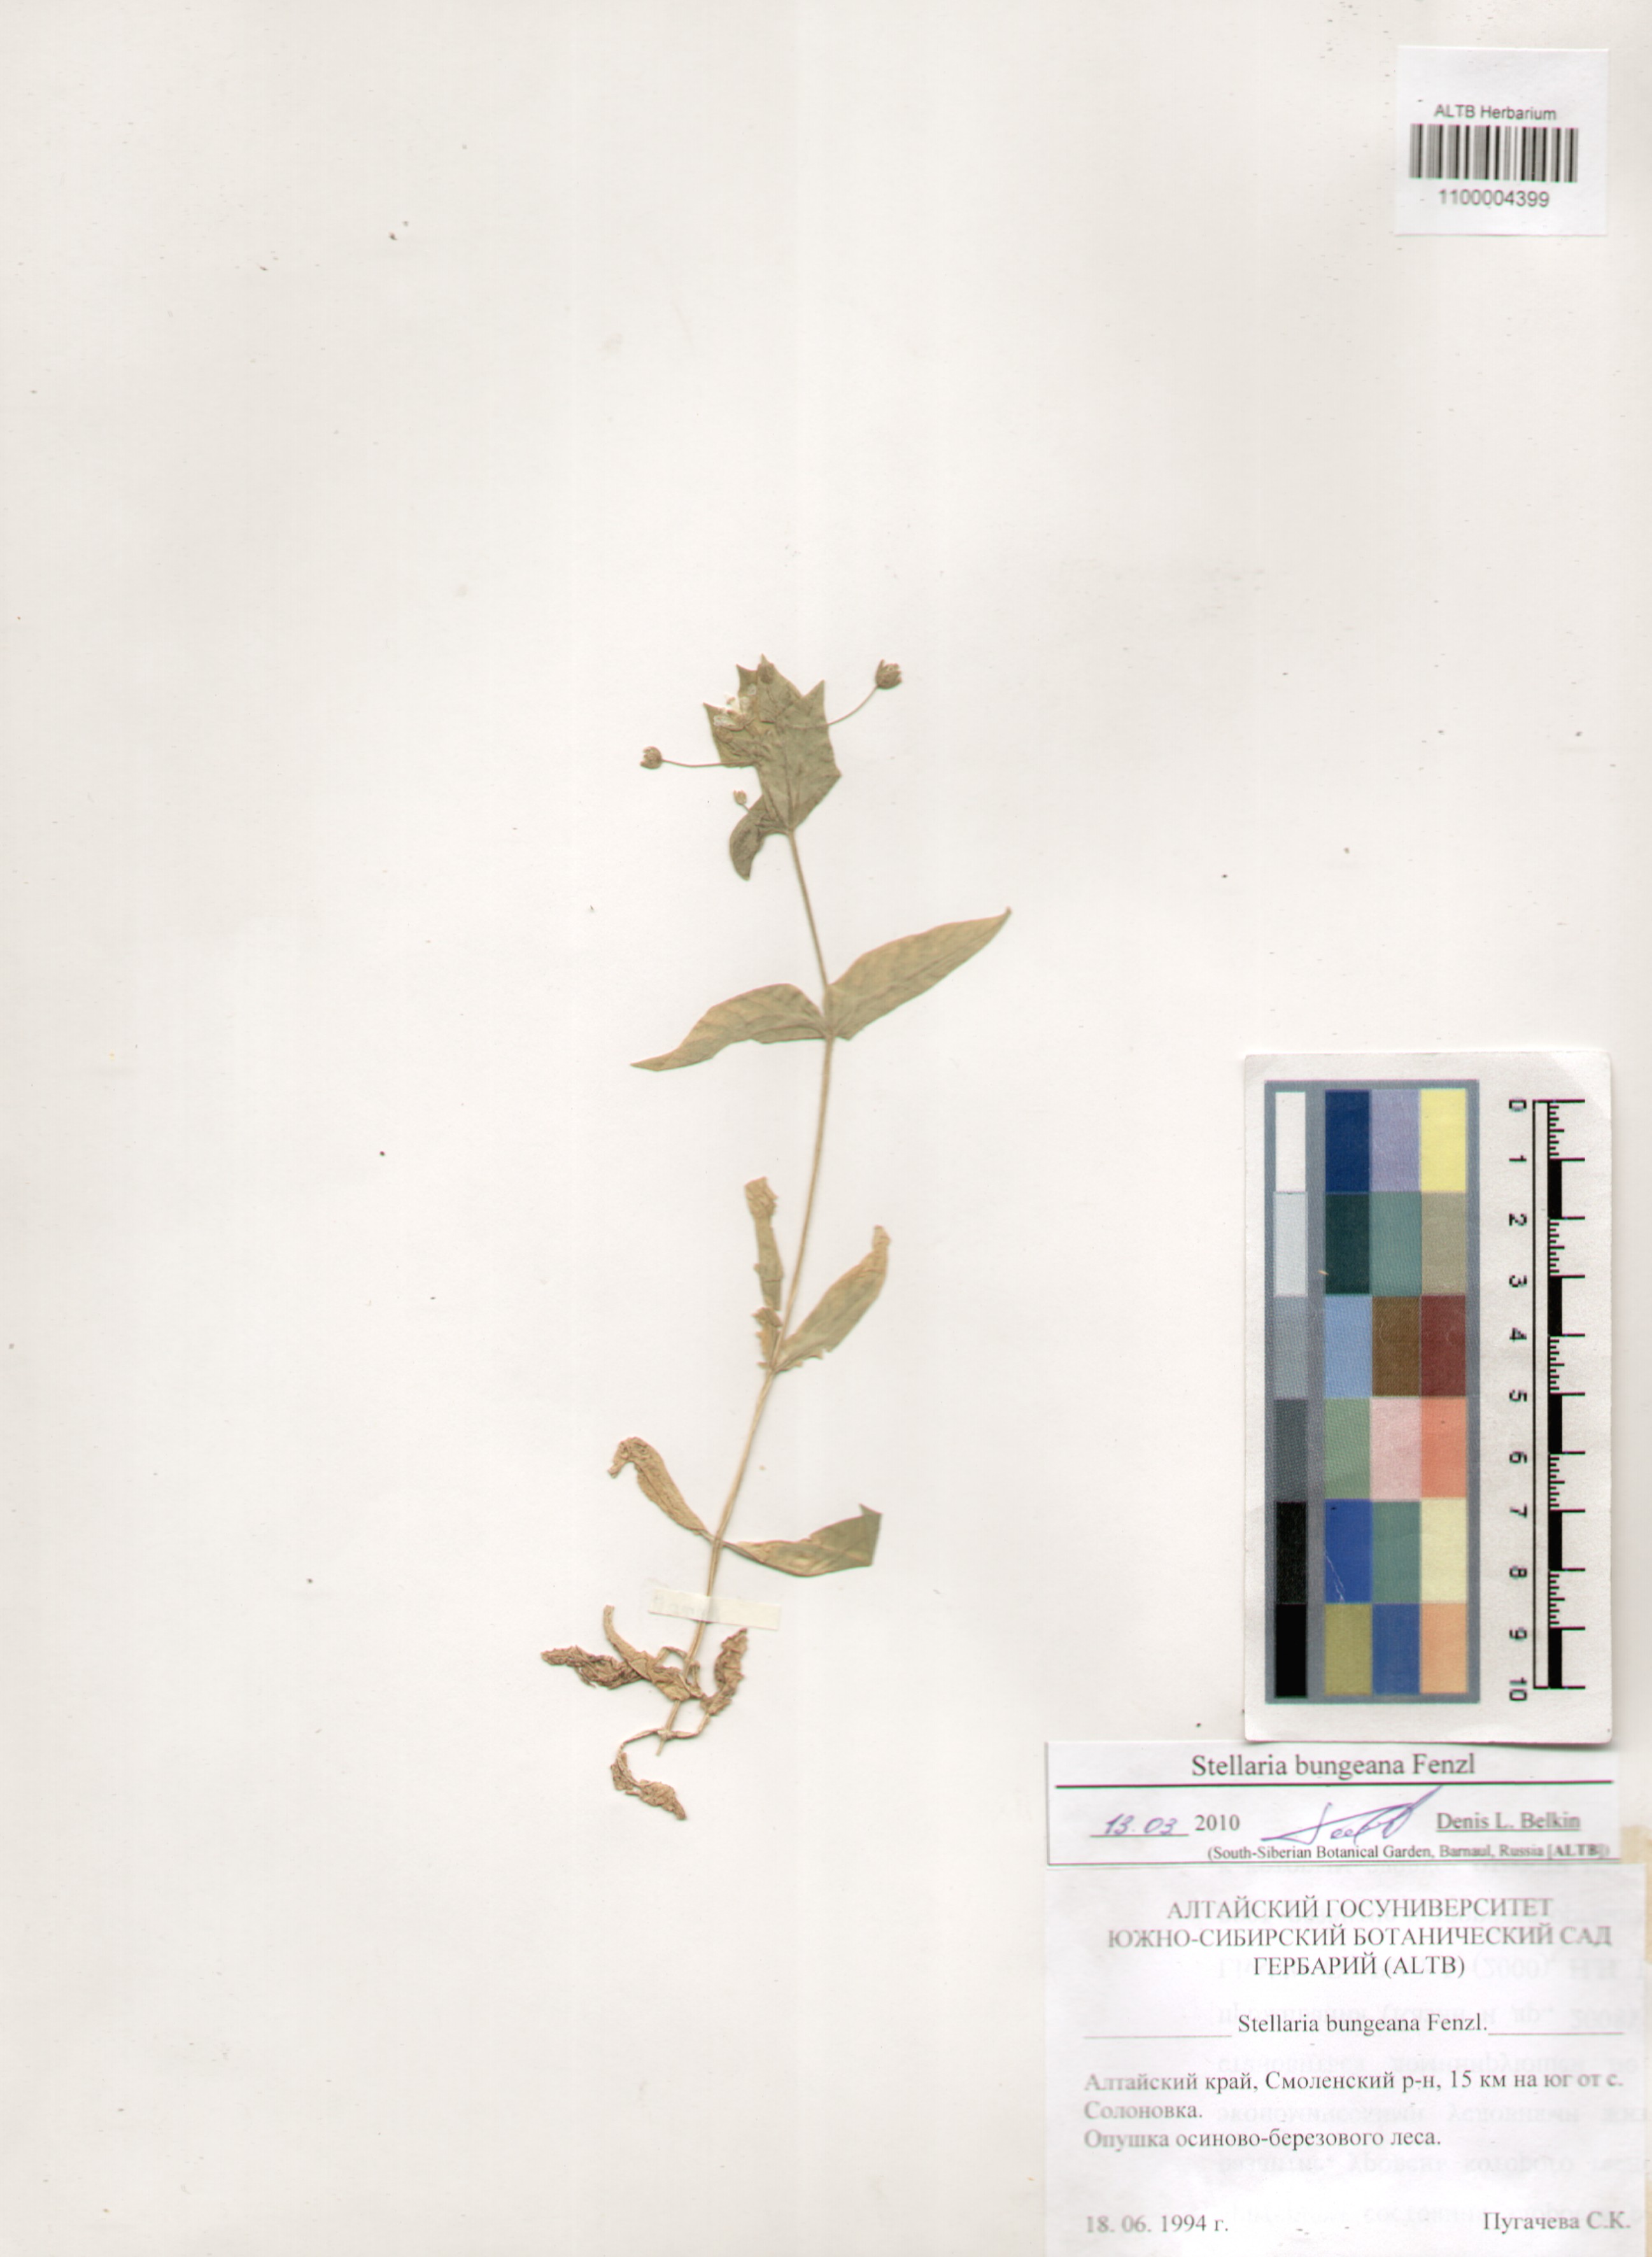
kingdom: Plantae
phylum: Tracheophyta
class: Magnoliopsida
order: Caryophyllales
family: Caryophyllaceae
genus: Stellaria
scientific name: Stellaria bungeana
